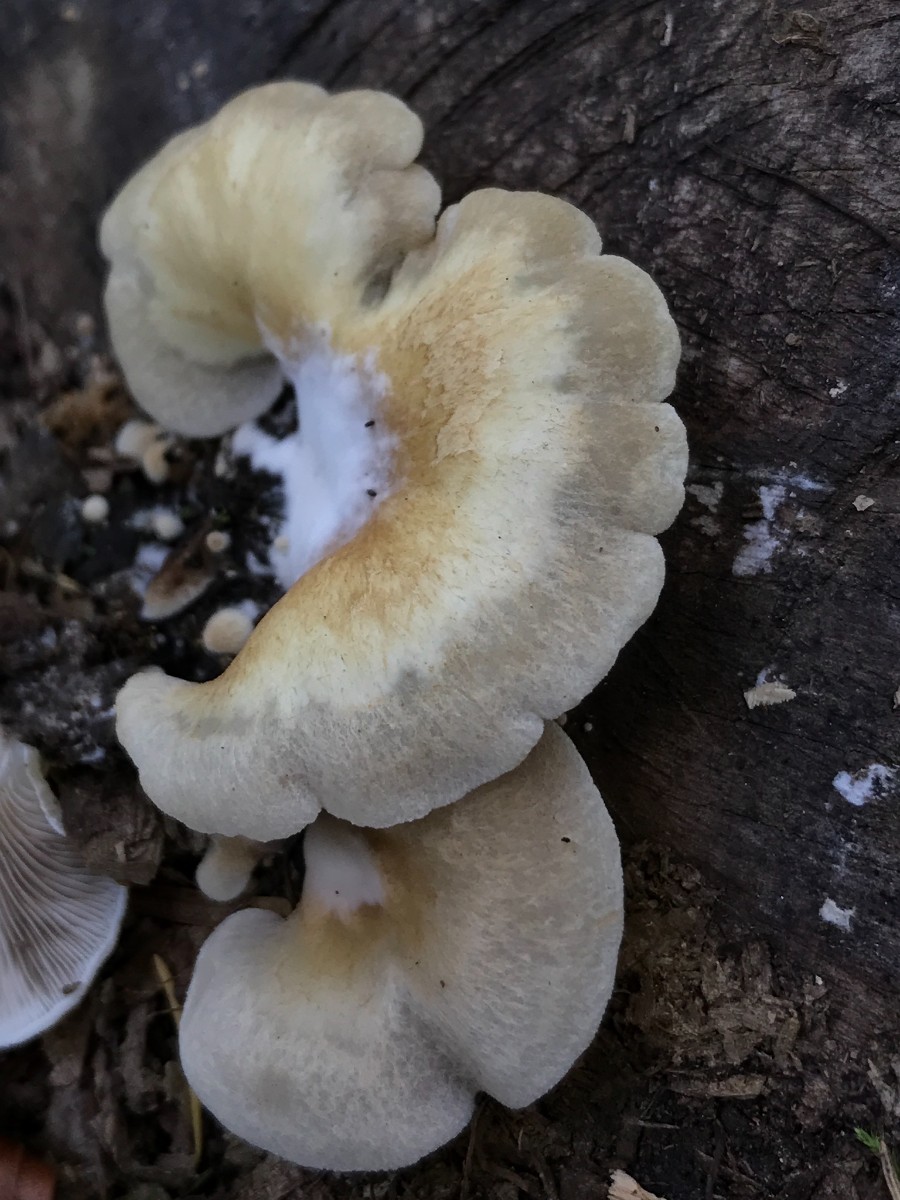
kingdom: Fungi
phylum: Basidiomycota
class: Agaricomycetes
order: Agaricales
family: Crepidotaceae
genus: Crepidotus
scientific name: Crepidotus mollis
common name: blød muslingesvamp
